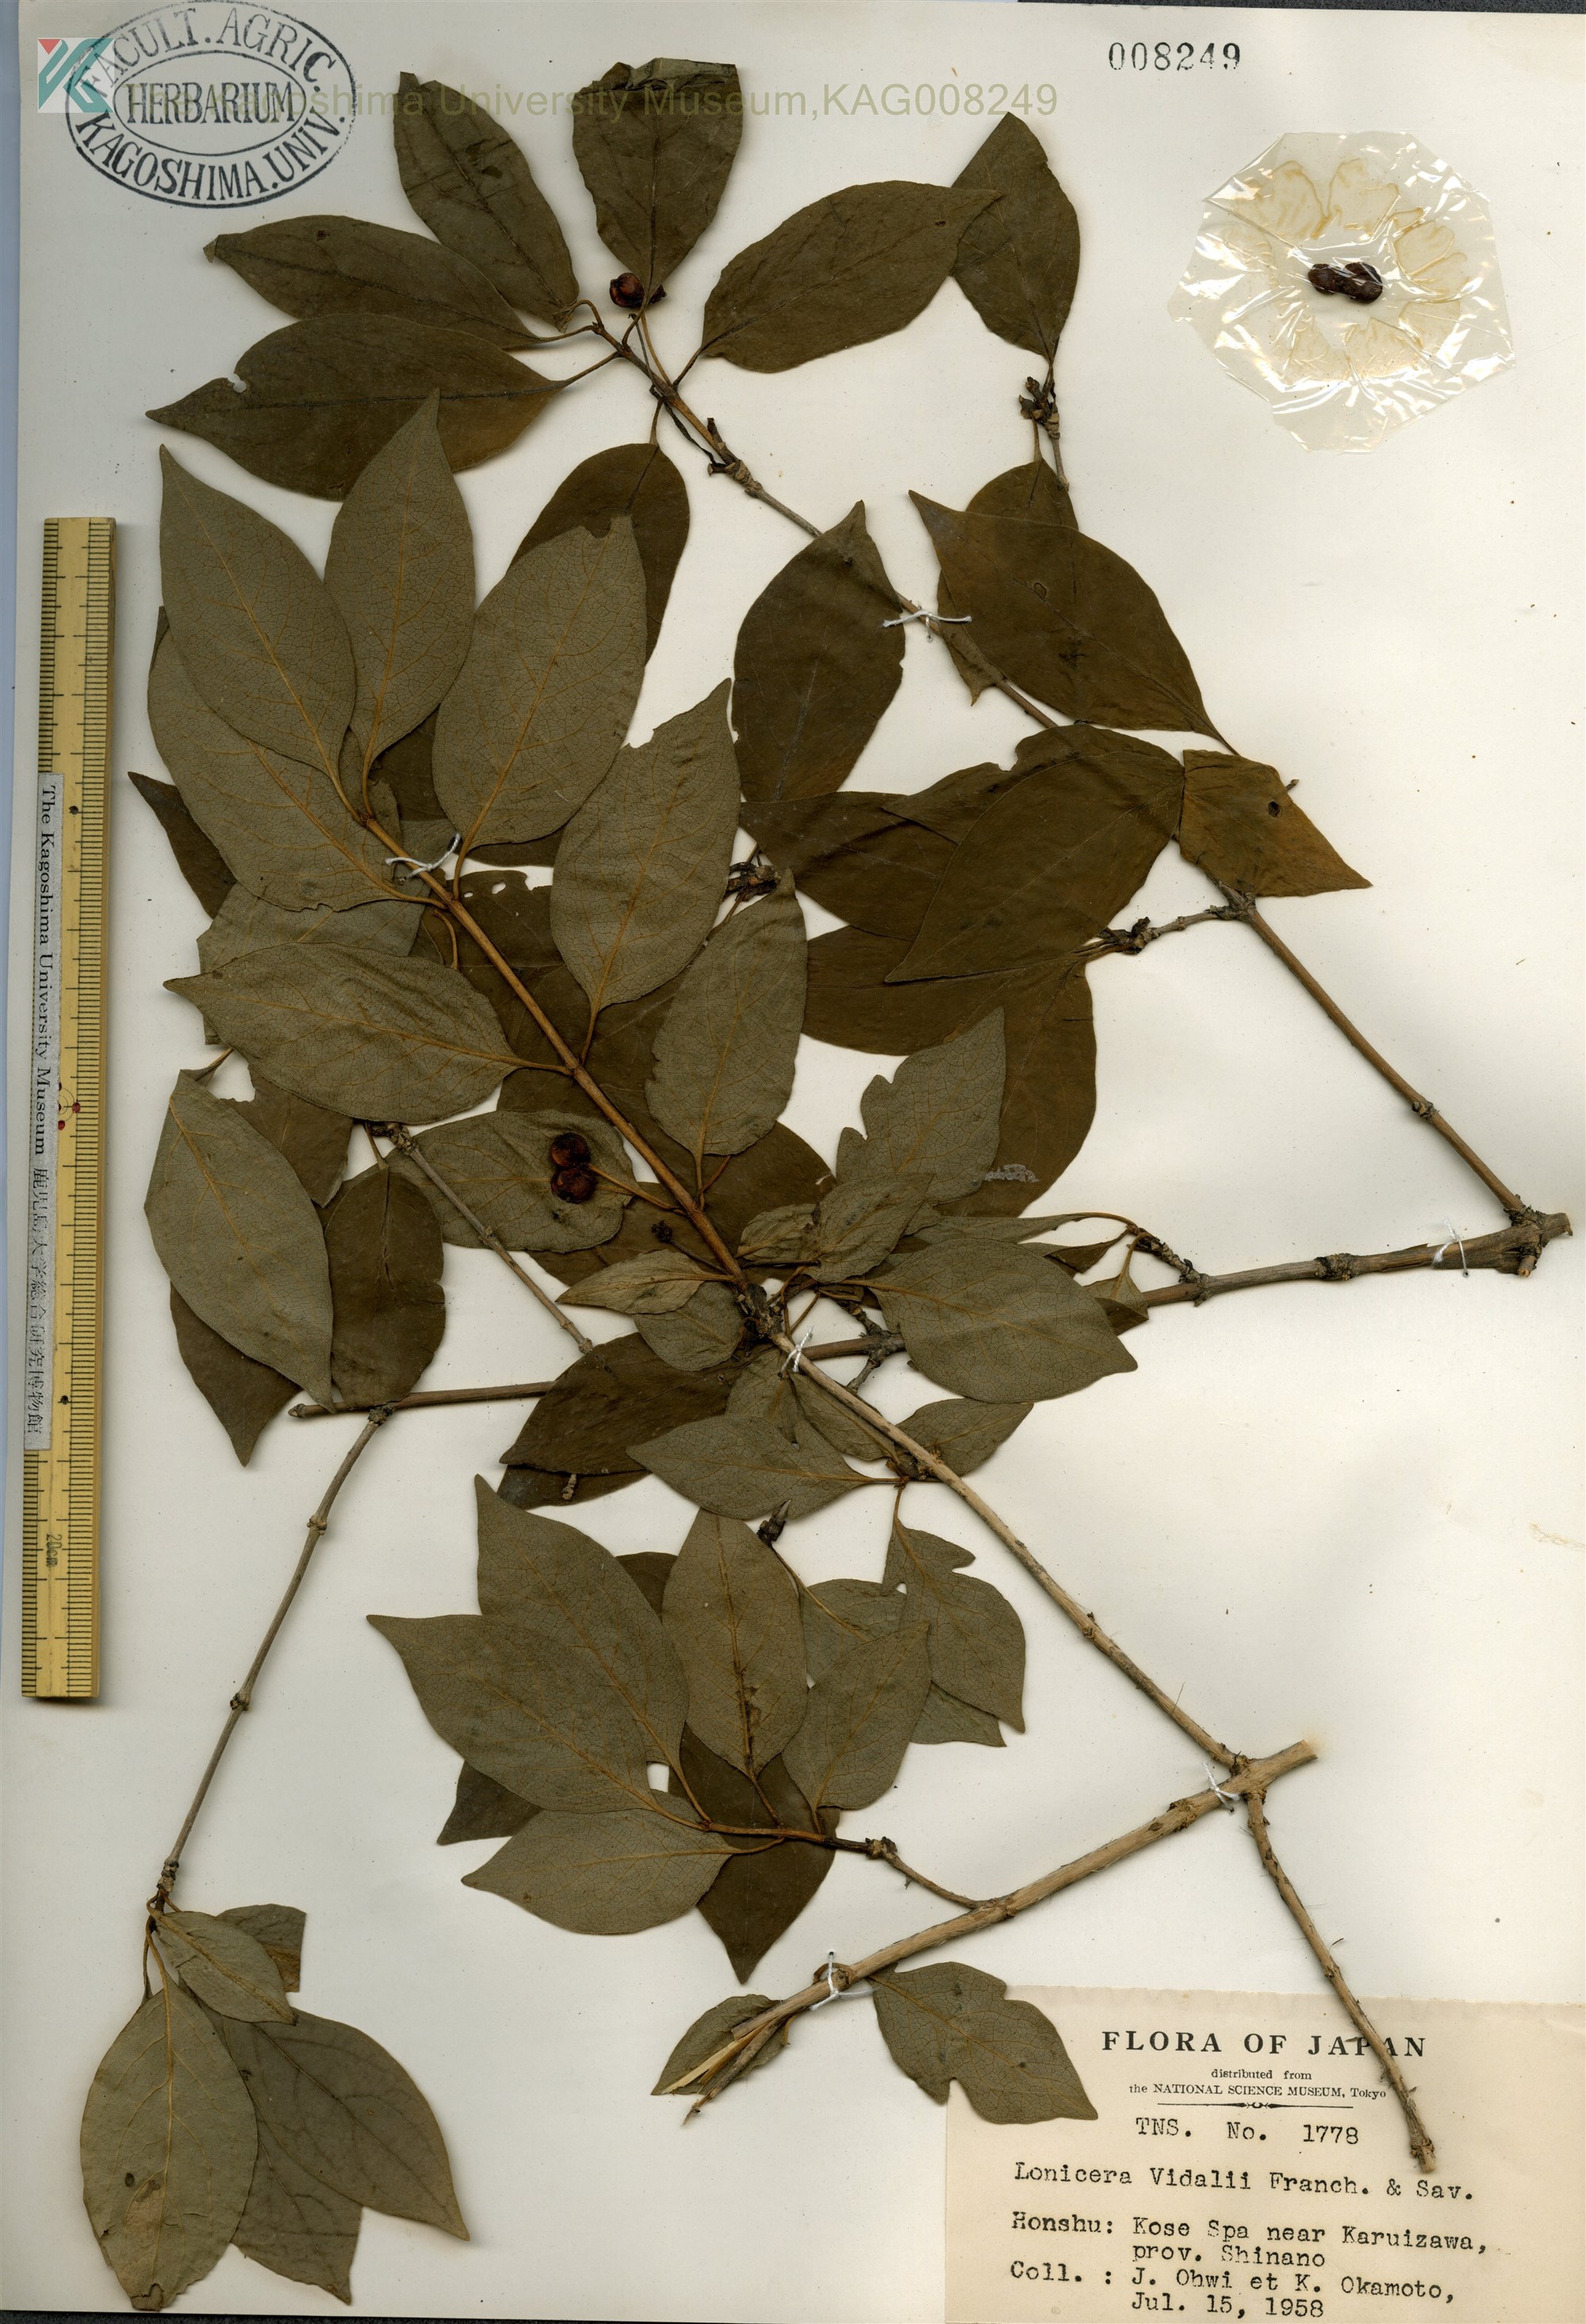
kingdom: Plantae
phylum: Tracheophyta
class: Magnoliopsida
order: Dipsacales
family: Caprifoliaceae
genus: Lonicera
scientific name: Lonicera vidalii
